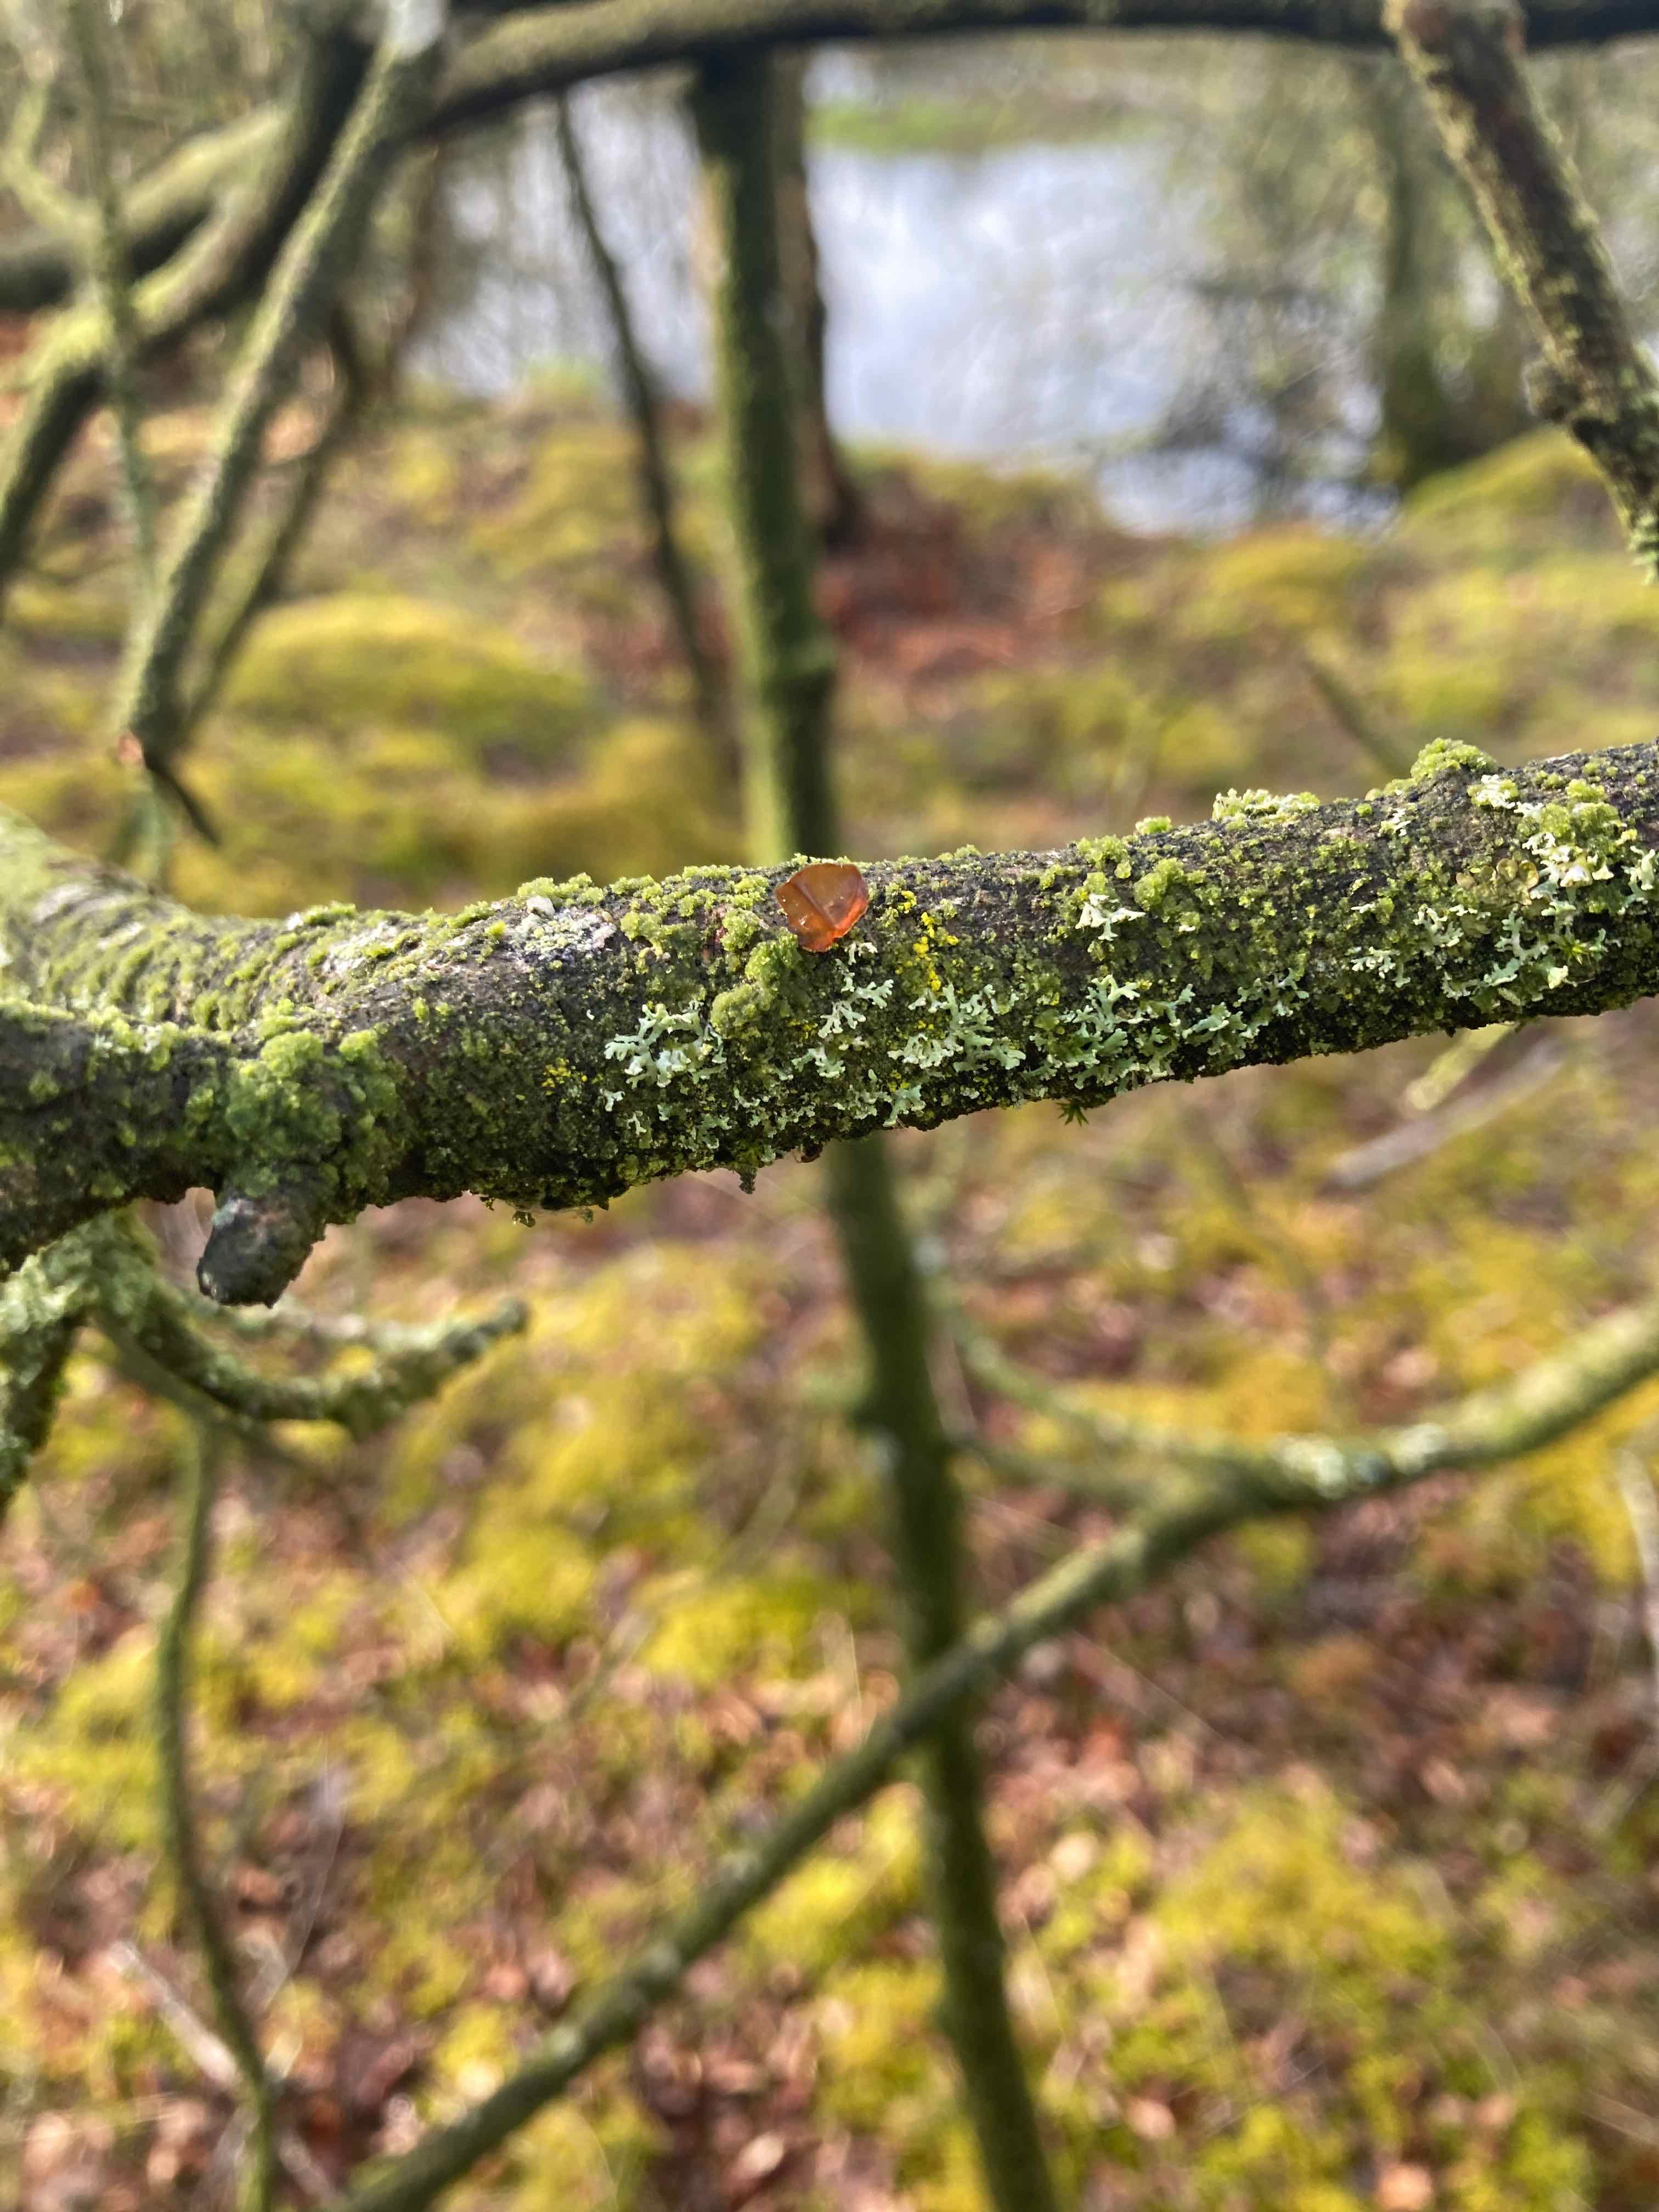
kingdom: Fungi
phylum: Basidiomycota
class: Agaricomycetes
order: Auriculariales
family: Auriculariaceae
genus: Exidia
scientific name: Exidia recisa
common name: pile-bævretop
